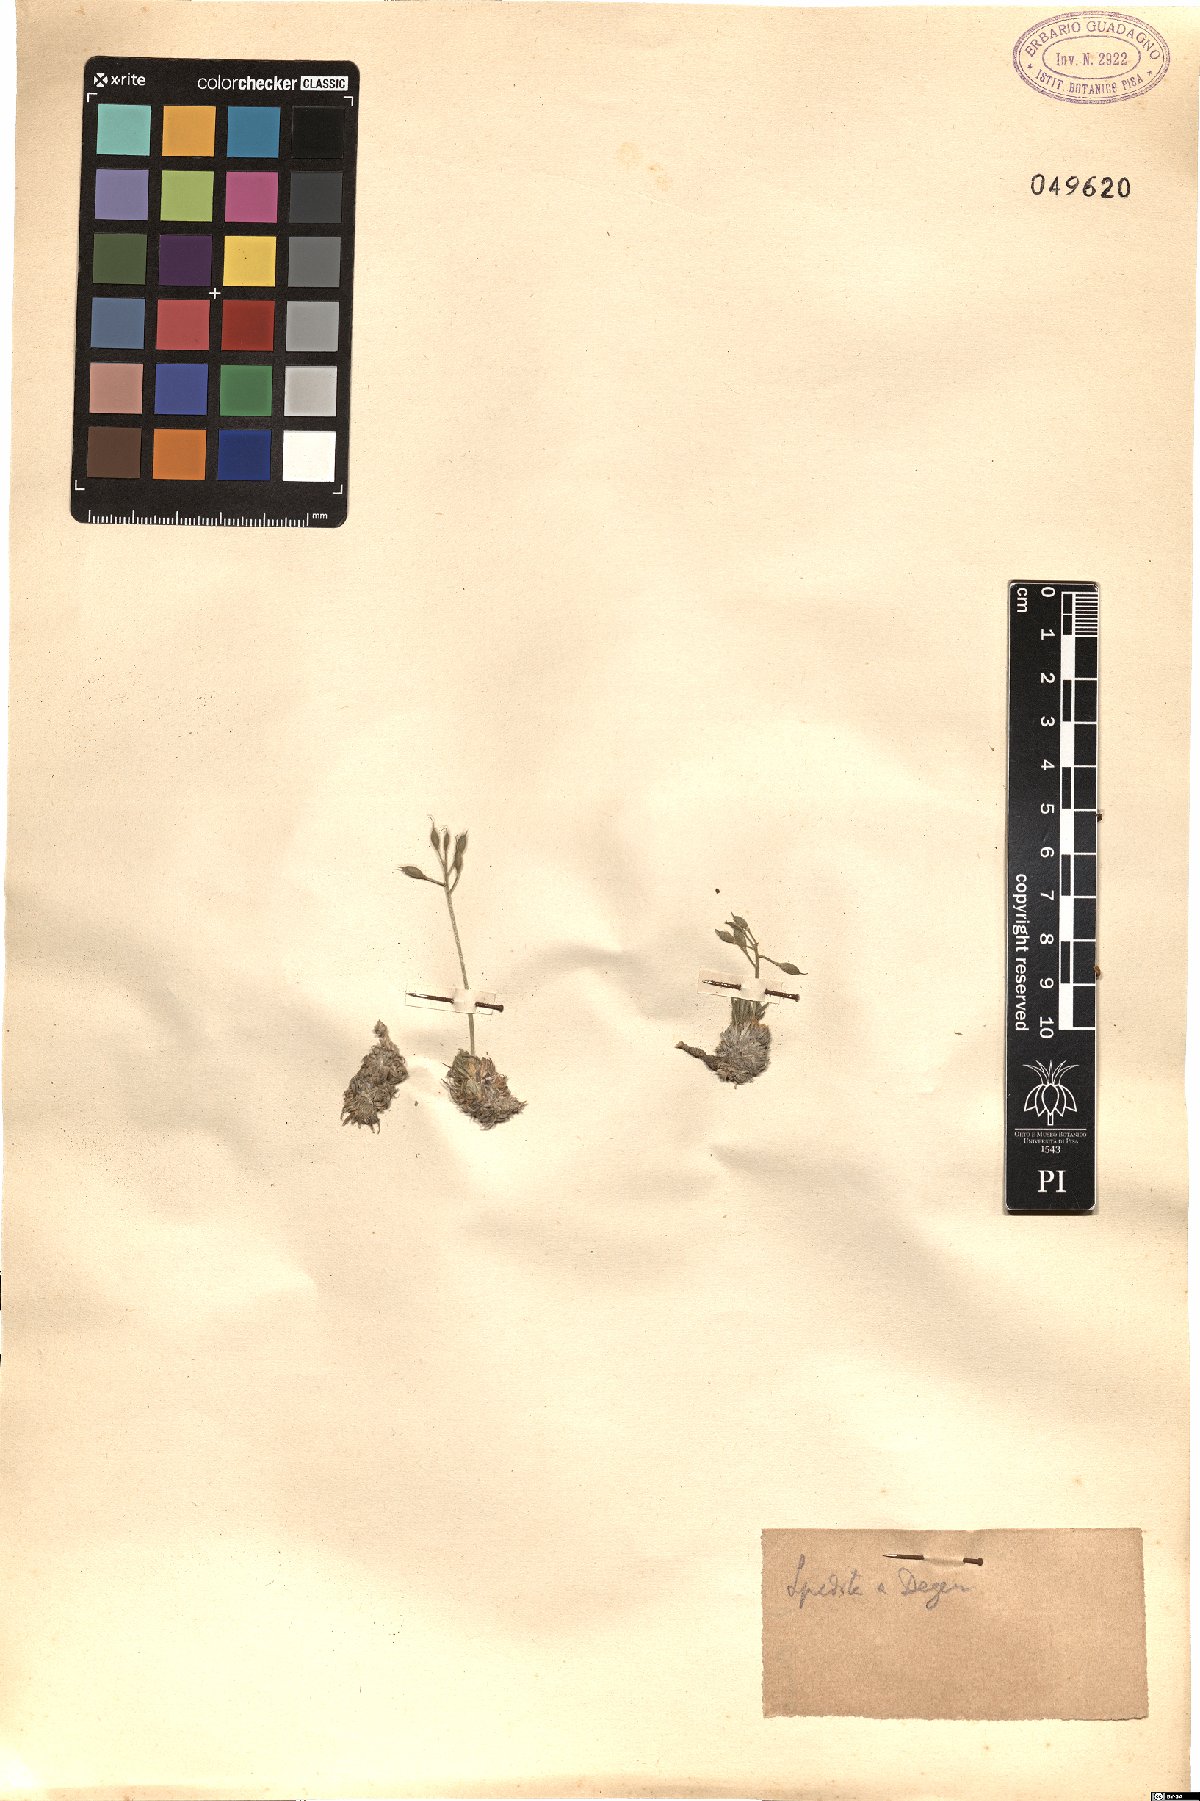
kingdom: Plantae
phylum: Tracheophyta
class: Magnoliopsida
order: Brassicales
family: Brassicaceae
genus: Draba
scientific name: Draba
